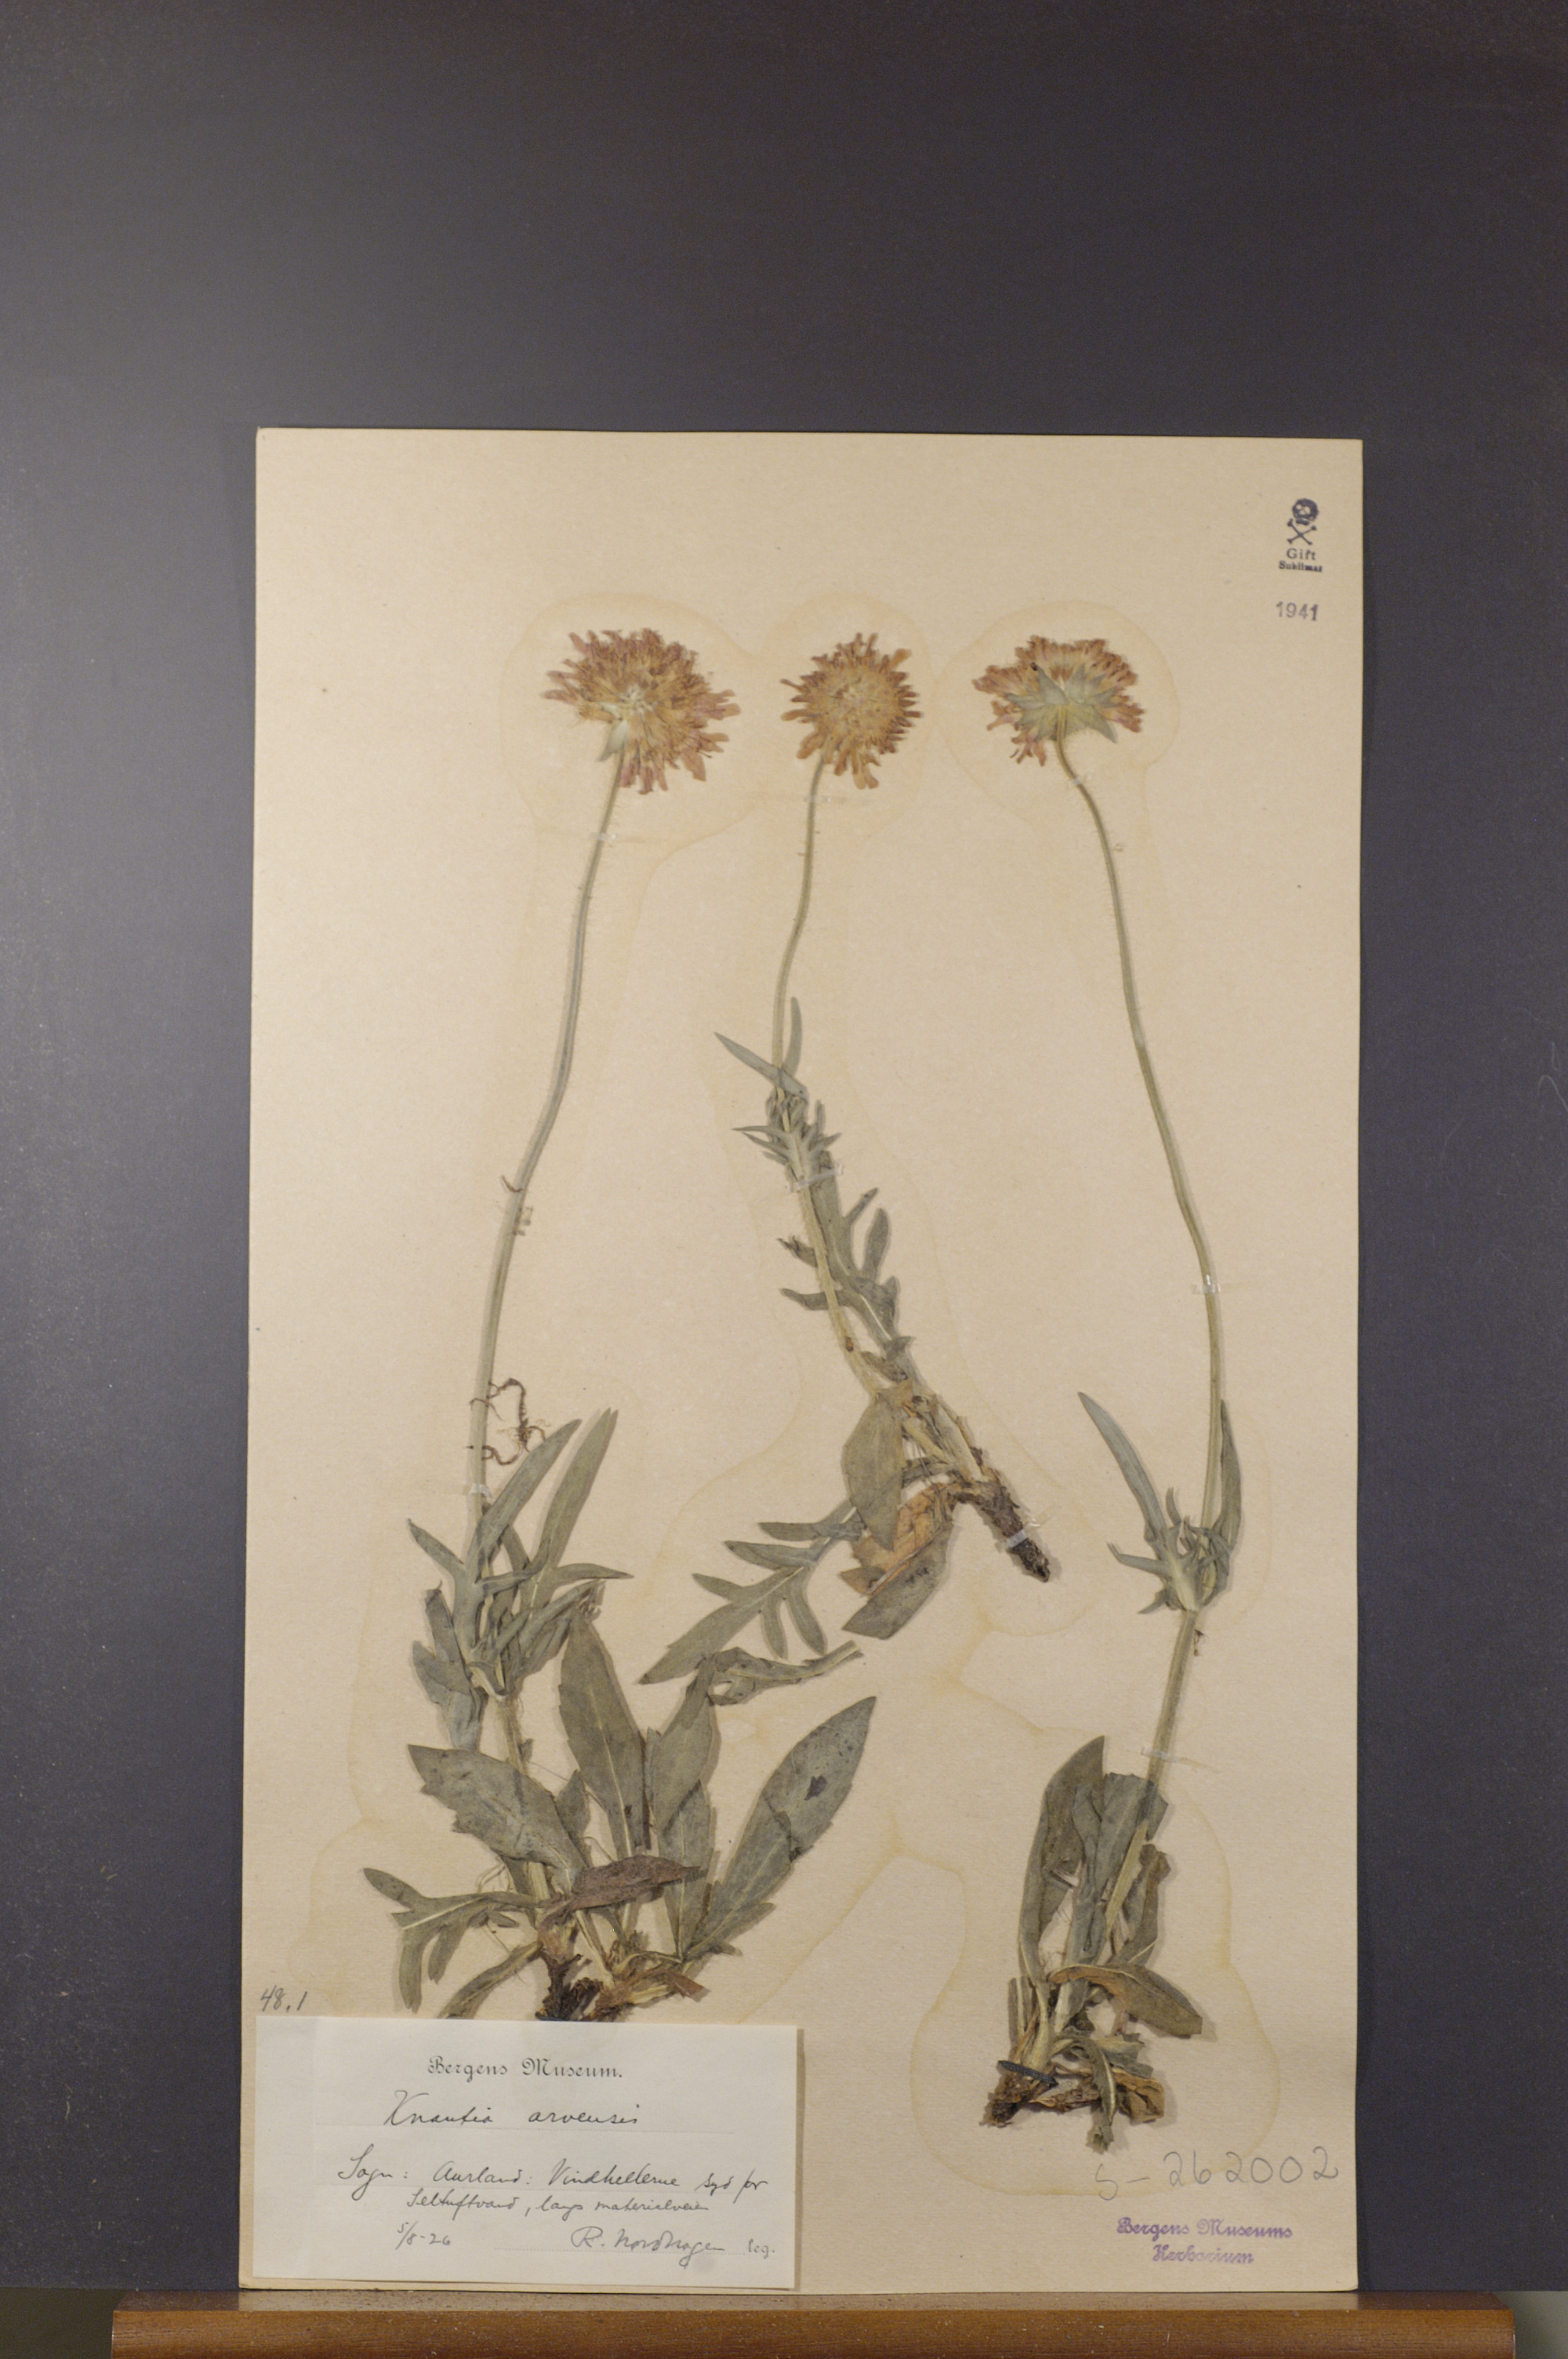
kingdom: Plantae
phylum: Tracheophyta
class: Magnoliopsida
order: Dipsacales
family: Caprifoliaceae
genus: Knautia
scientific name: Knautia arvensis
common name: Field scabiosa
